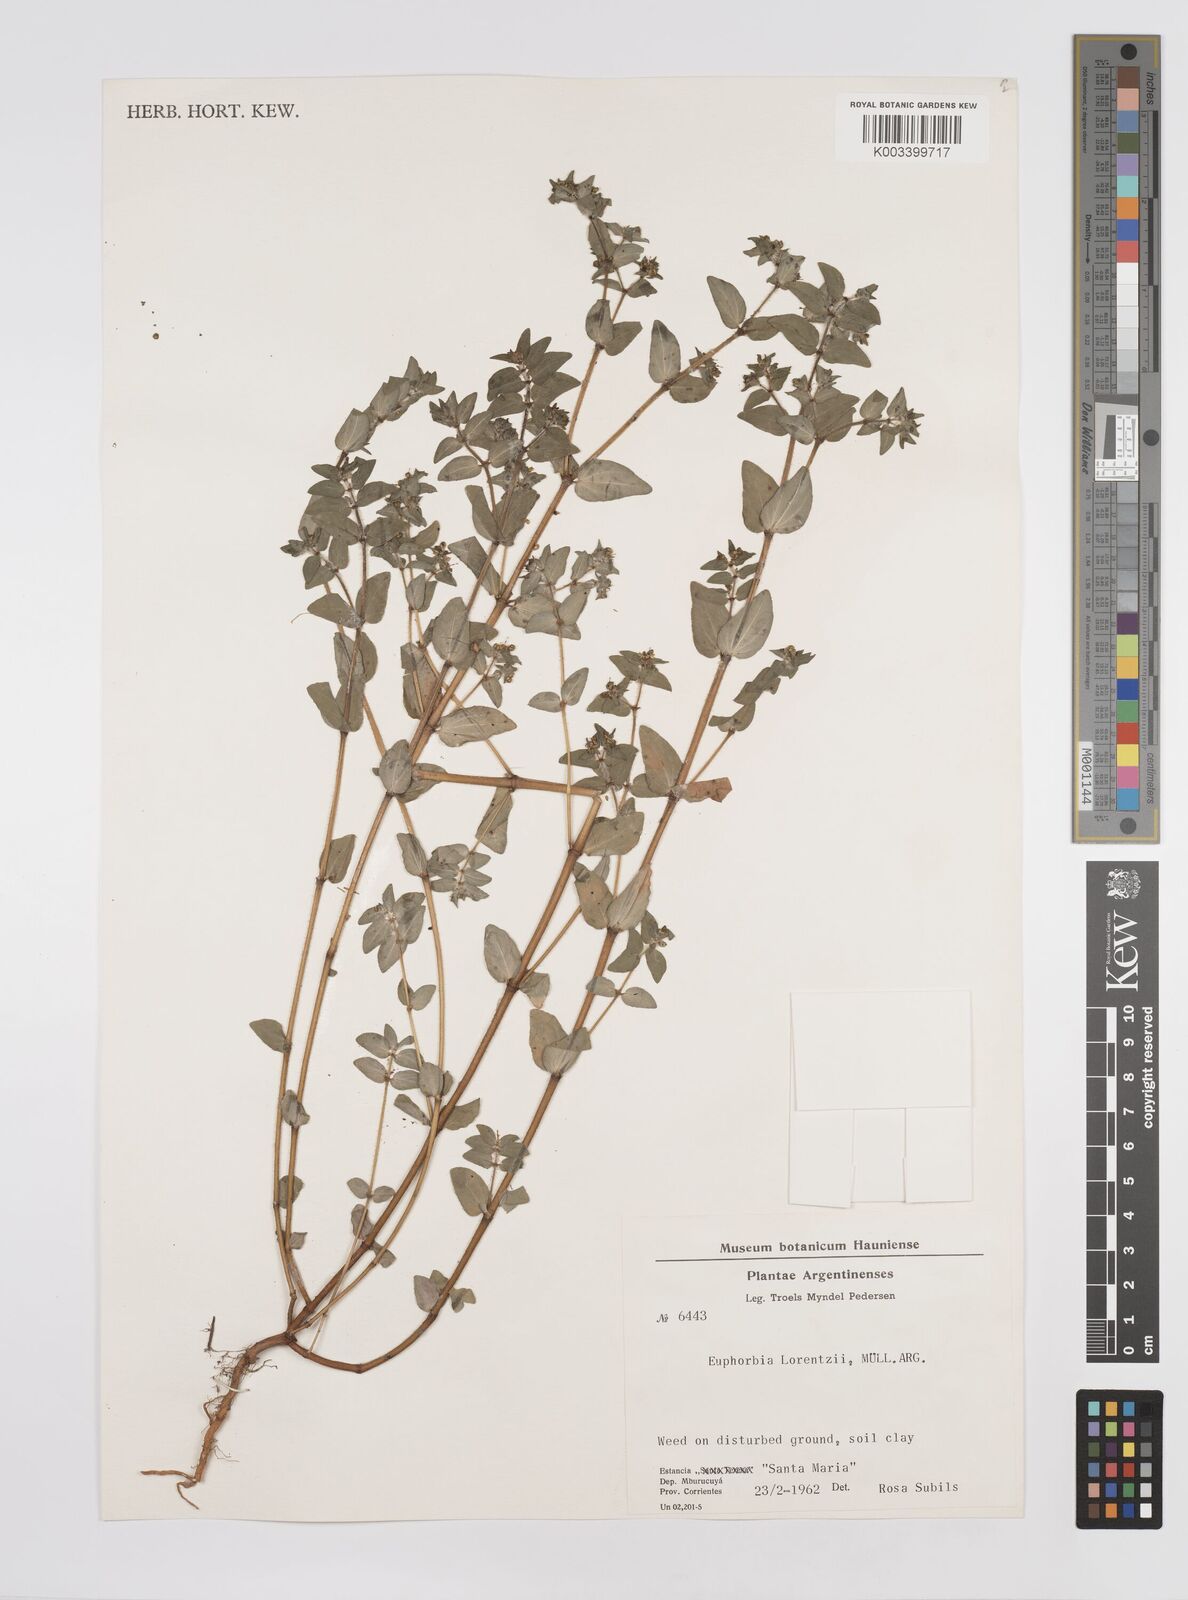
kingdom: Plantae
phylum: Tracheophyta
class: Magnoliopsida
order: Malpighiales
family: Euphorbiaceae
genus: Euphorbia
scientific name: Euphorbia lorentzii
